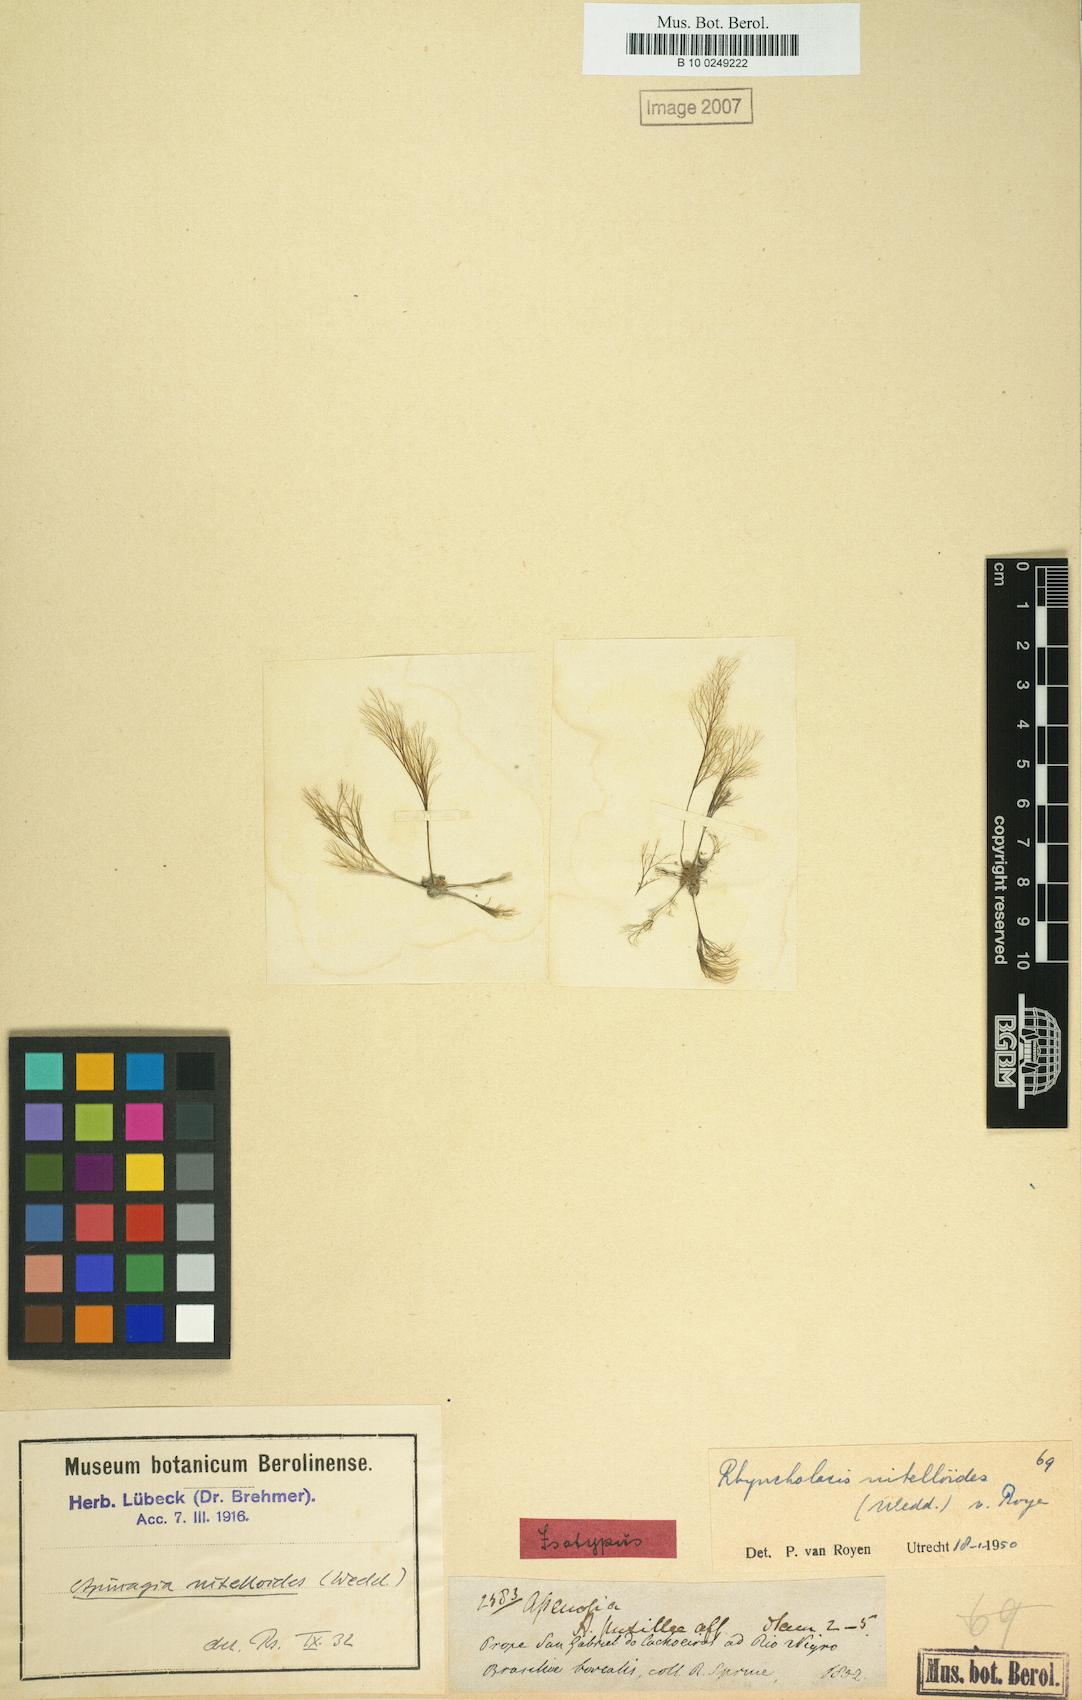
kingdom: Plantae
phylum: Tracheophyta
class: Magnoliopsida
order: Malpighiales
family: Podostemaceae
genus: Rhyncholacis
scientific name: Rhyncholacis nitelloides
